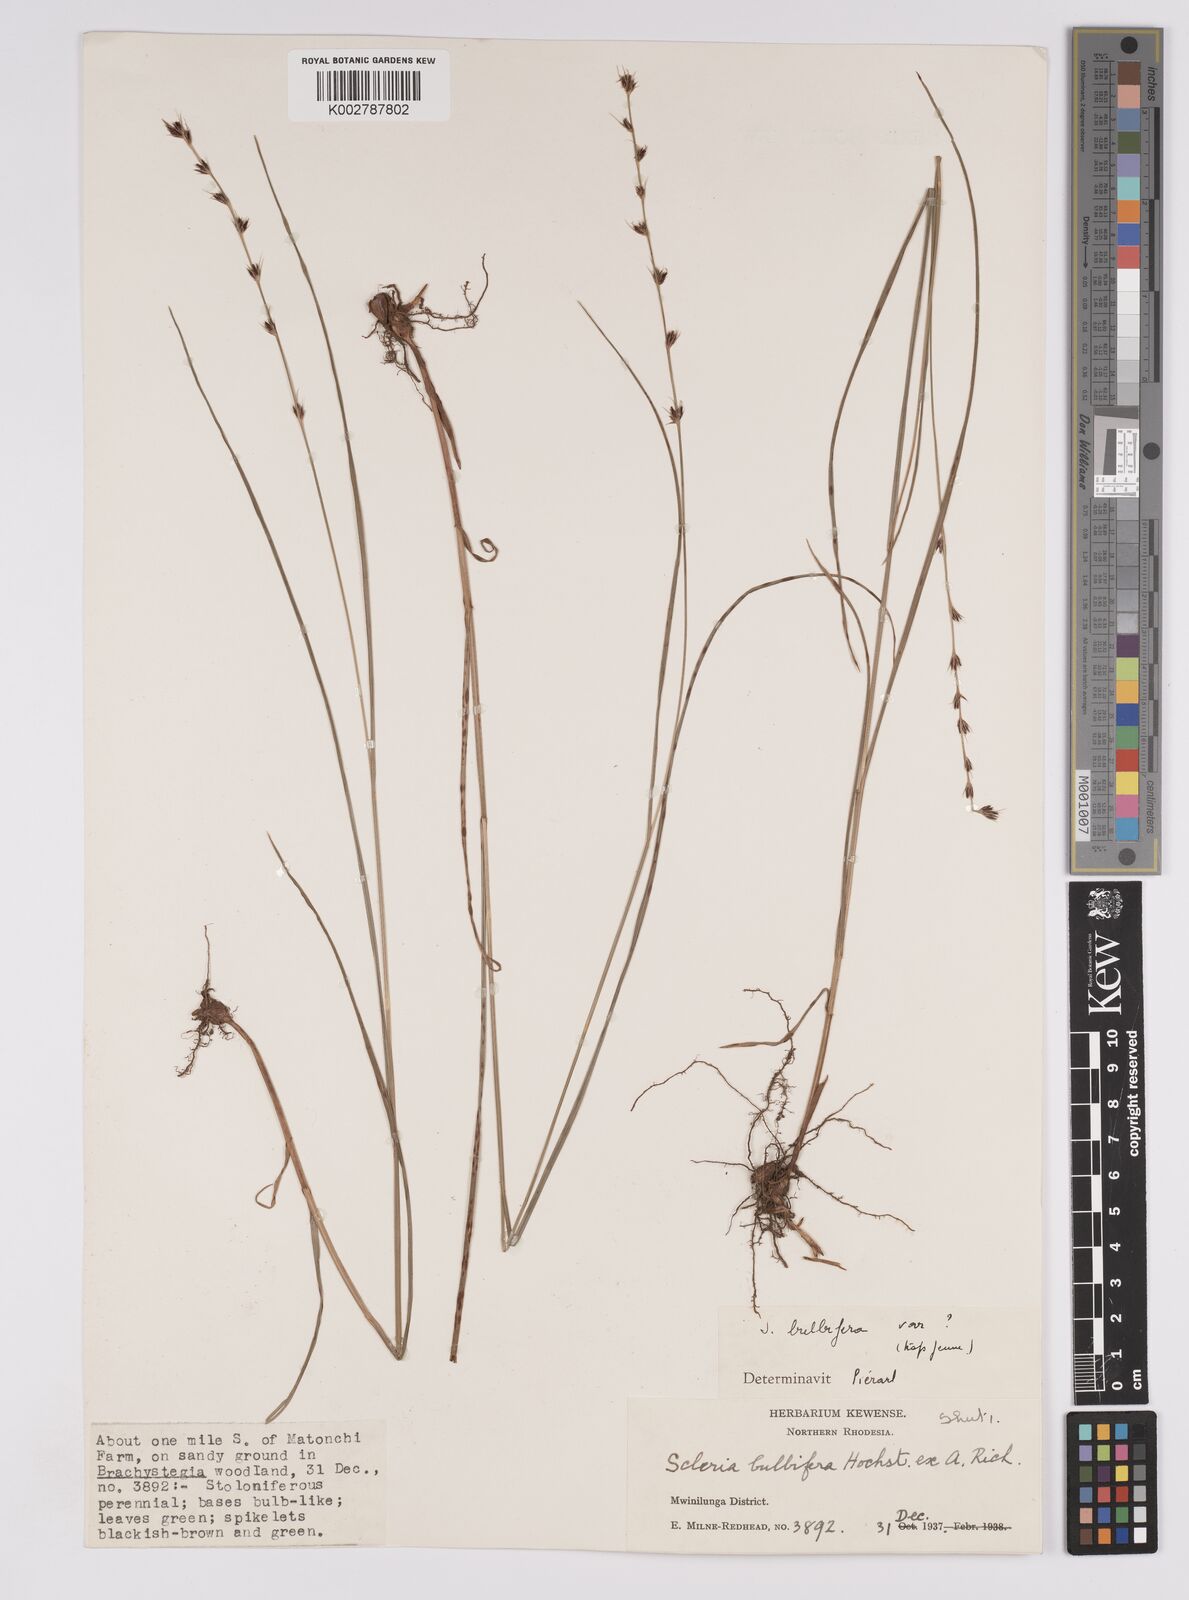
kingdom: Plantae
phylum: Tracheophyta
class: Liliopsida
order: Poales
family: Cyperaceae
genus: Scleria
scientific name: Scleria bulbifera
